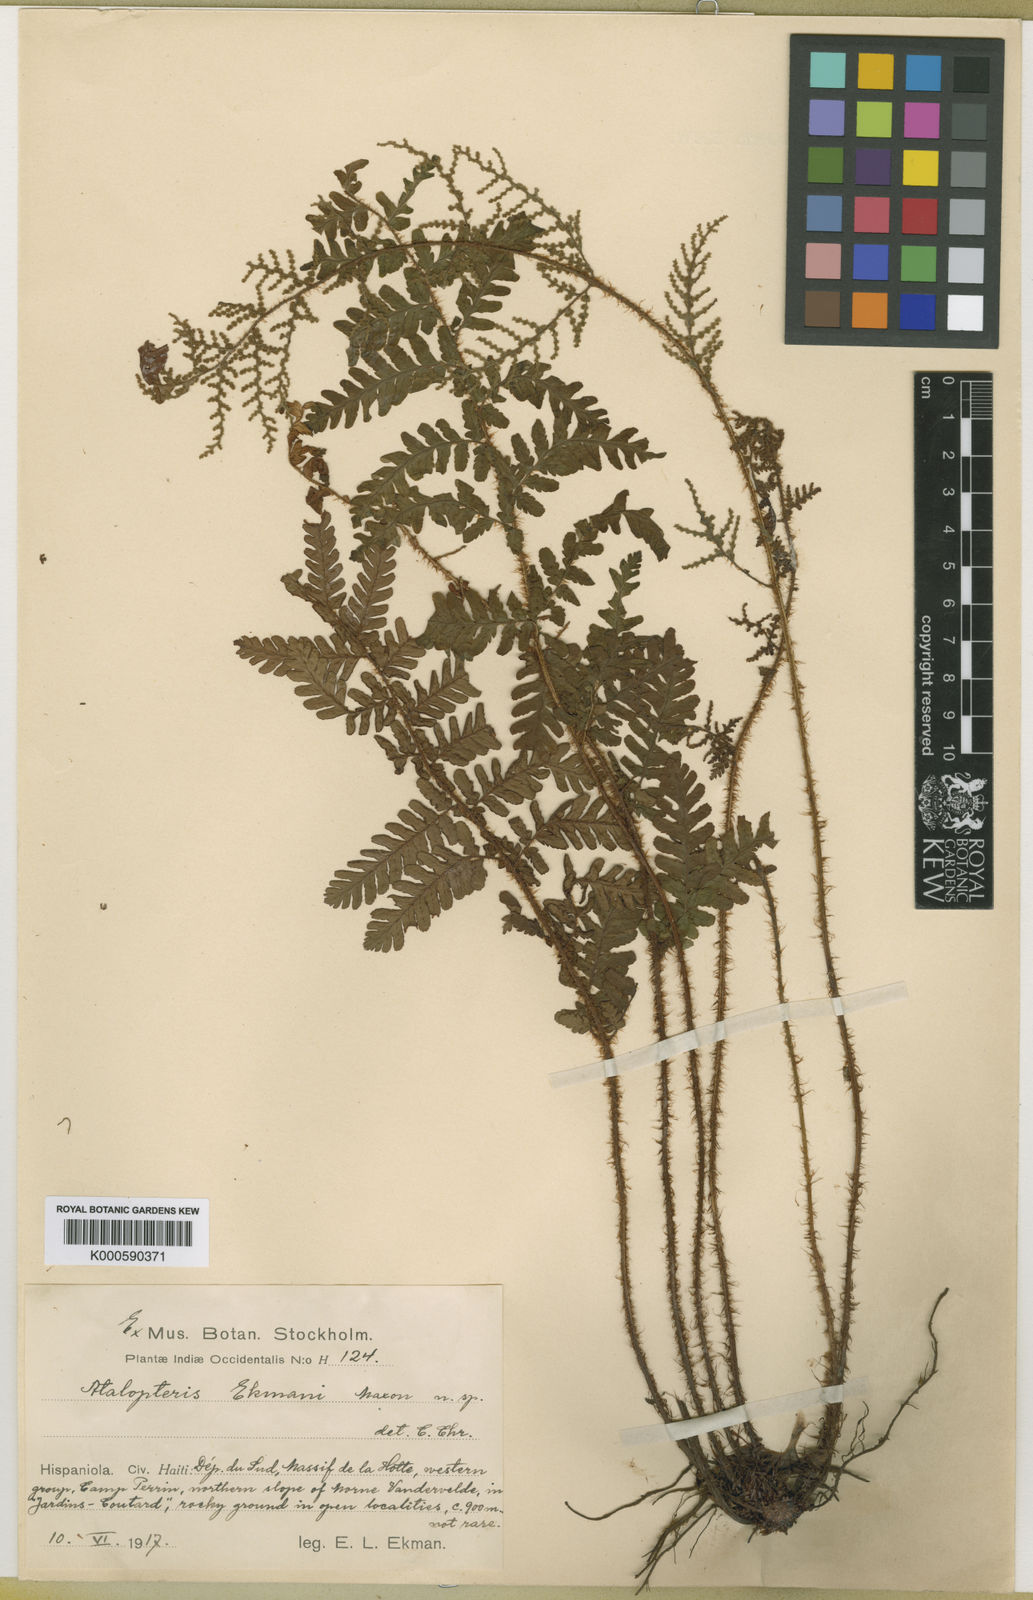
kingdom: Plantae
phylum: Tracheophyta
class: Polypodiopsida
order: Polypodiales
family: Dryopteridaceae
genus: Atalopteris
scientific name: Atalopteris ekmanii
